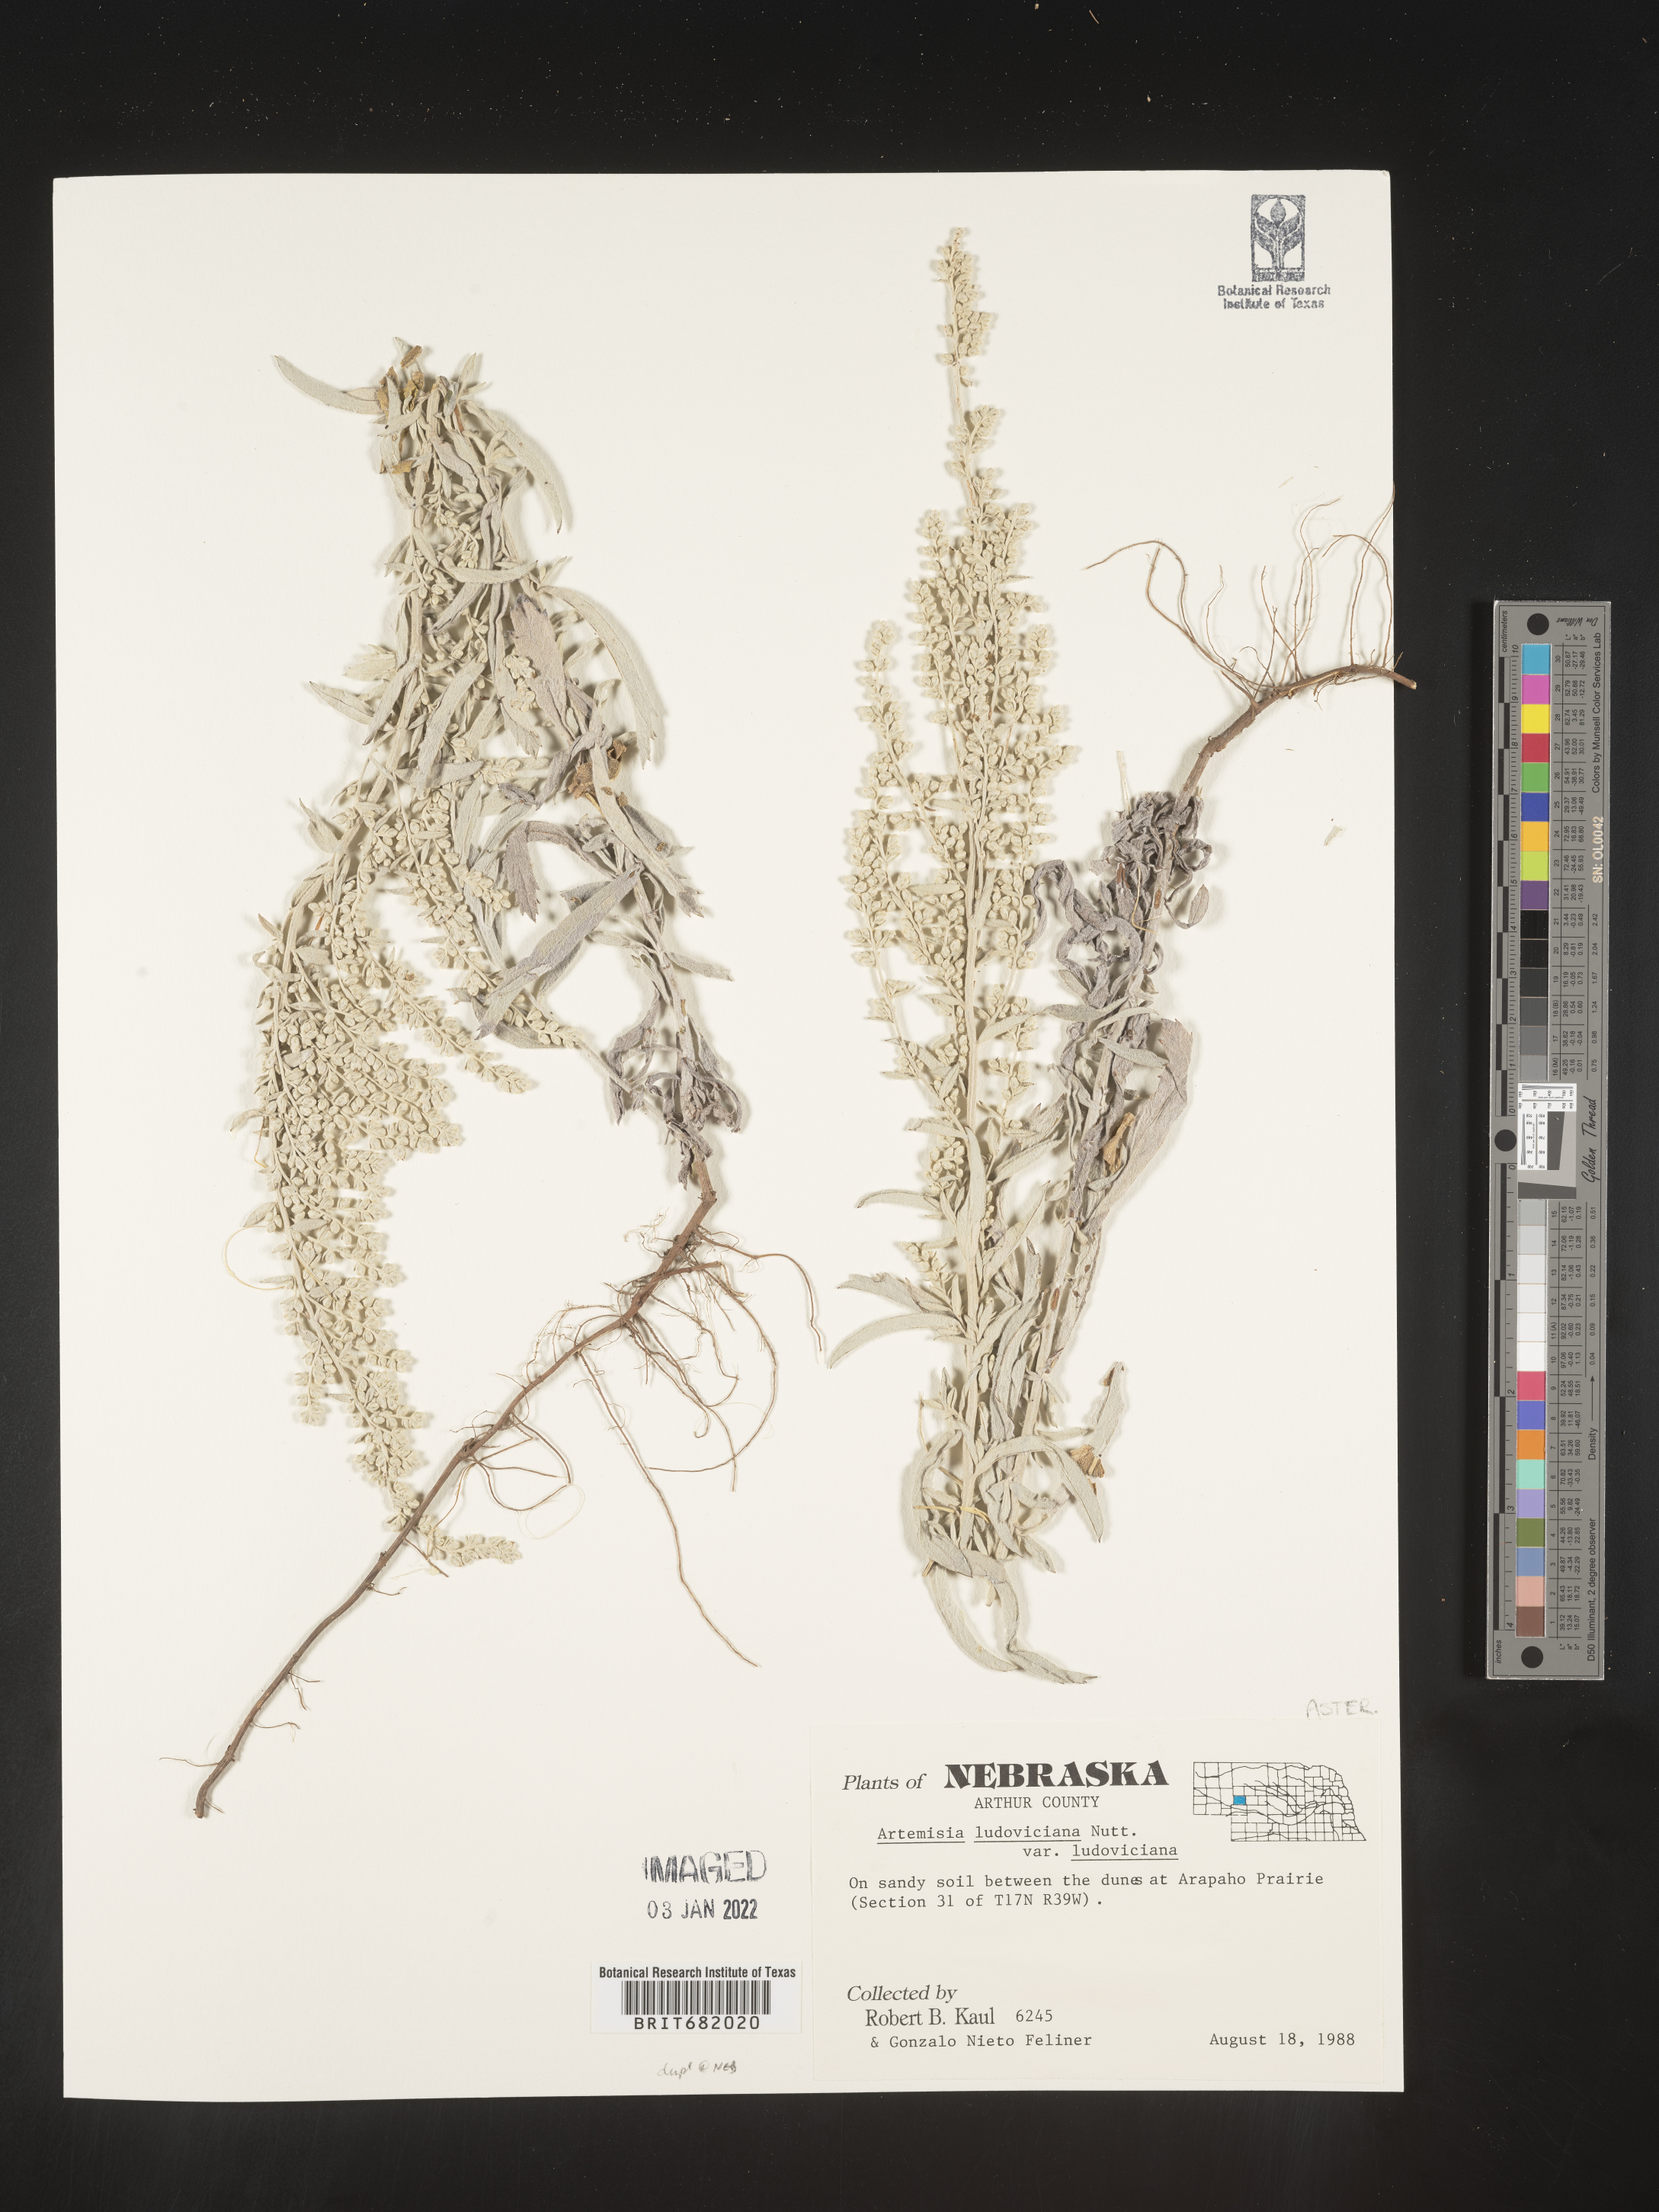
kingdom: Plantae
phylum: Tracheophyta
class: Magnoliopsida
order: Asterales
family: Asteraceae
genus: Artemisia
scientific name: Artemisia ludoviciana
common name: Western mugwort
